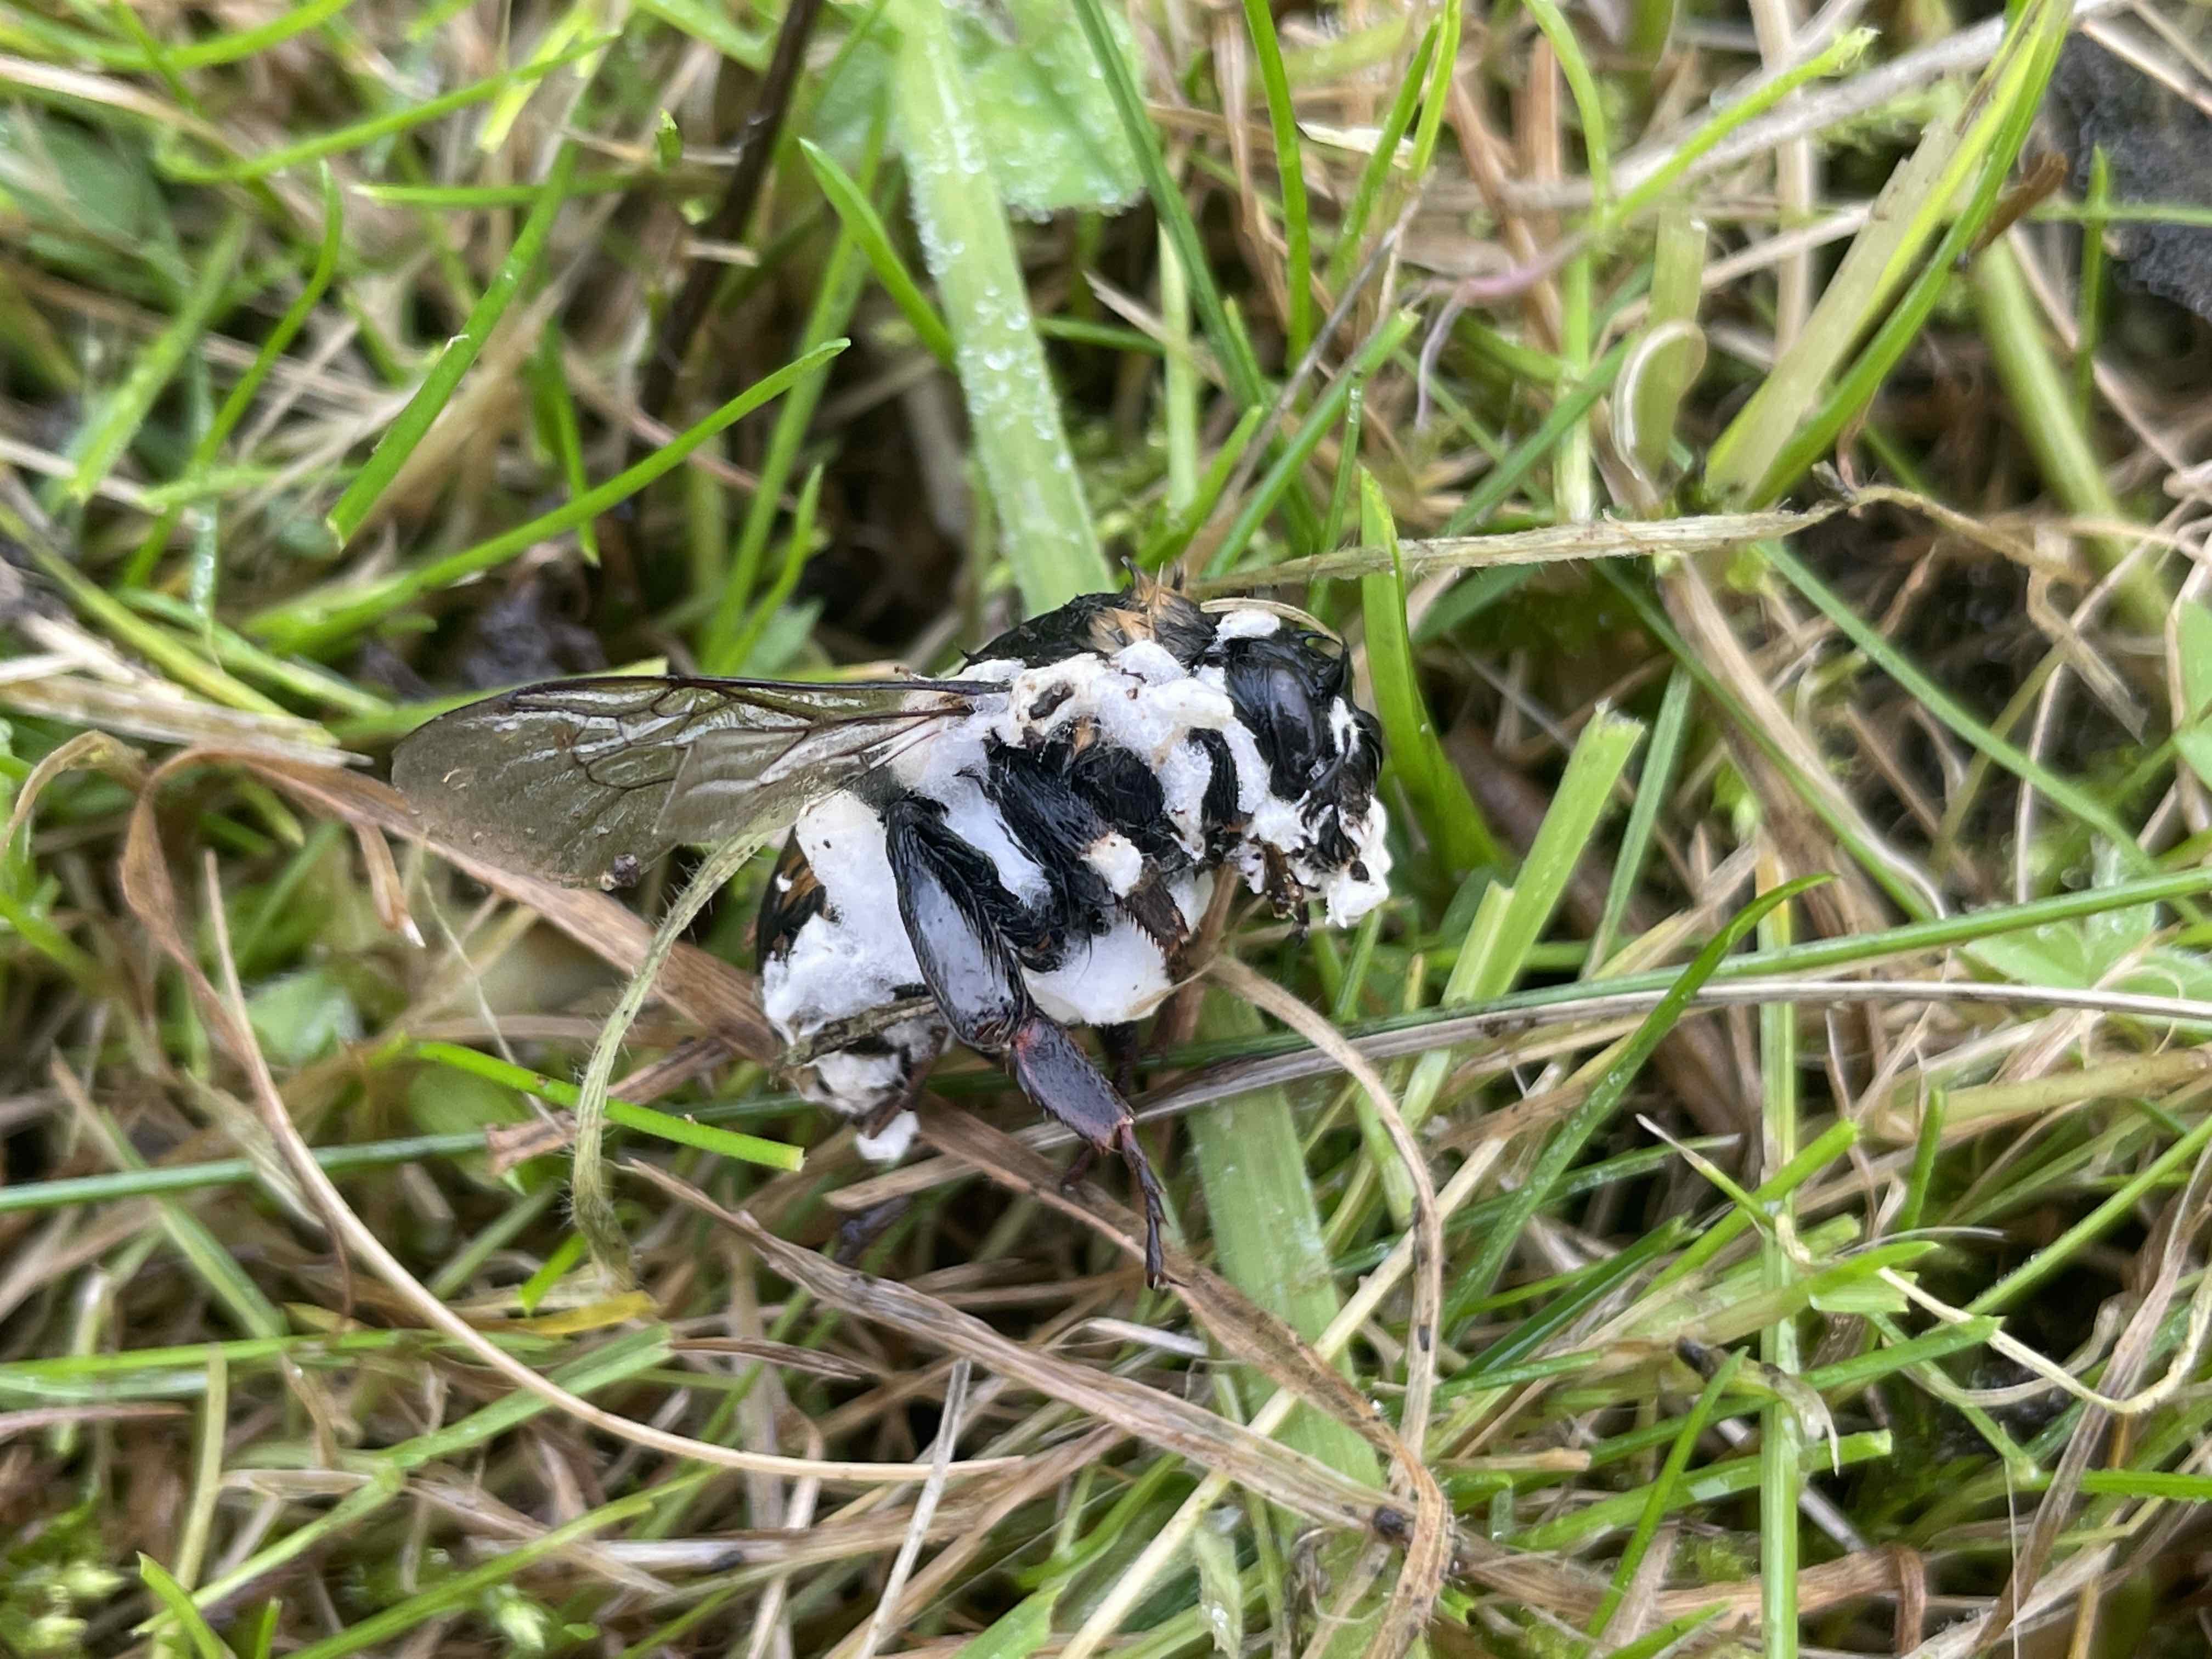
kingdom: Fungi
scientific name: Fungi
